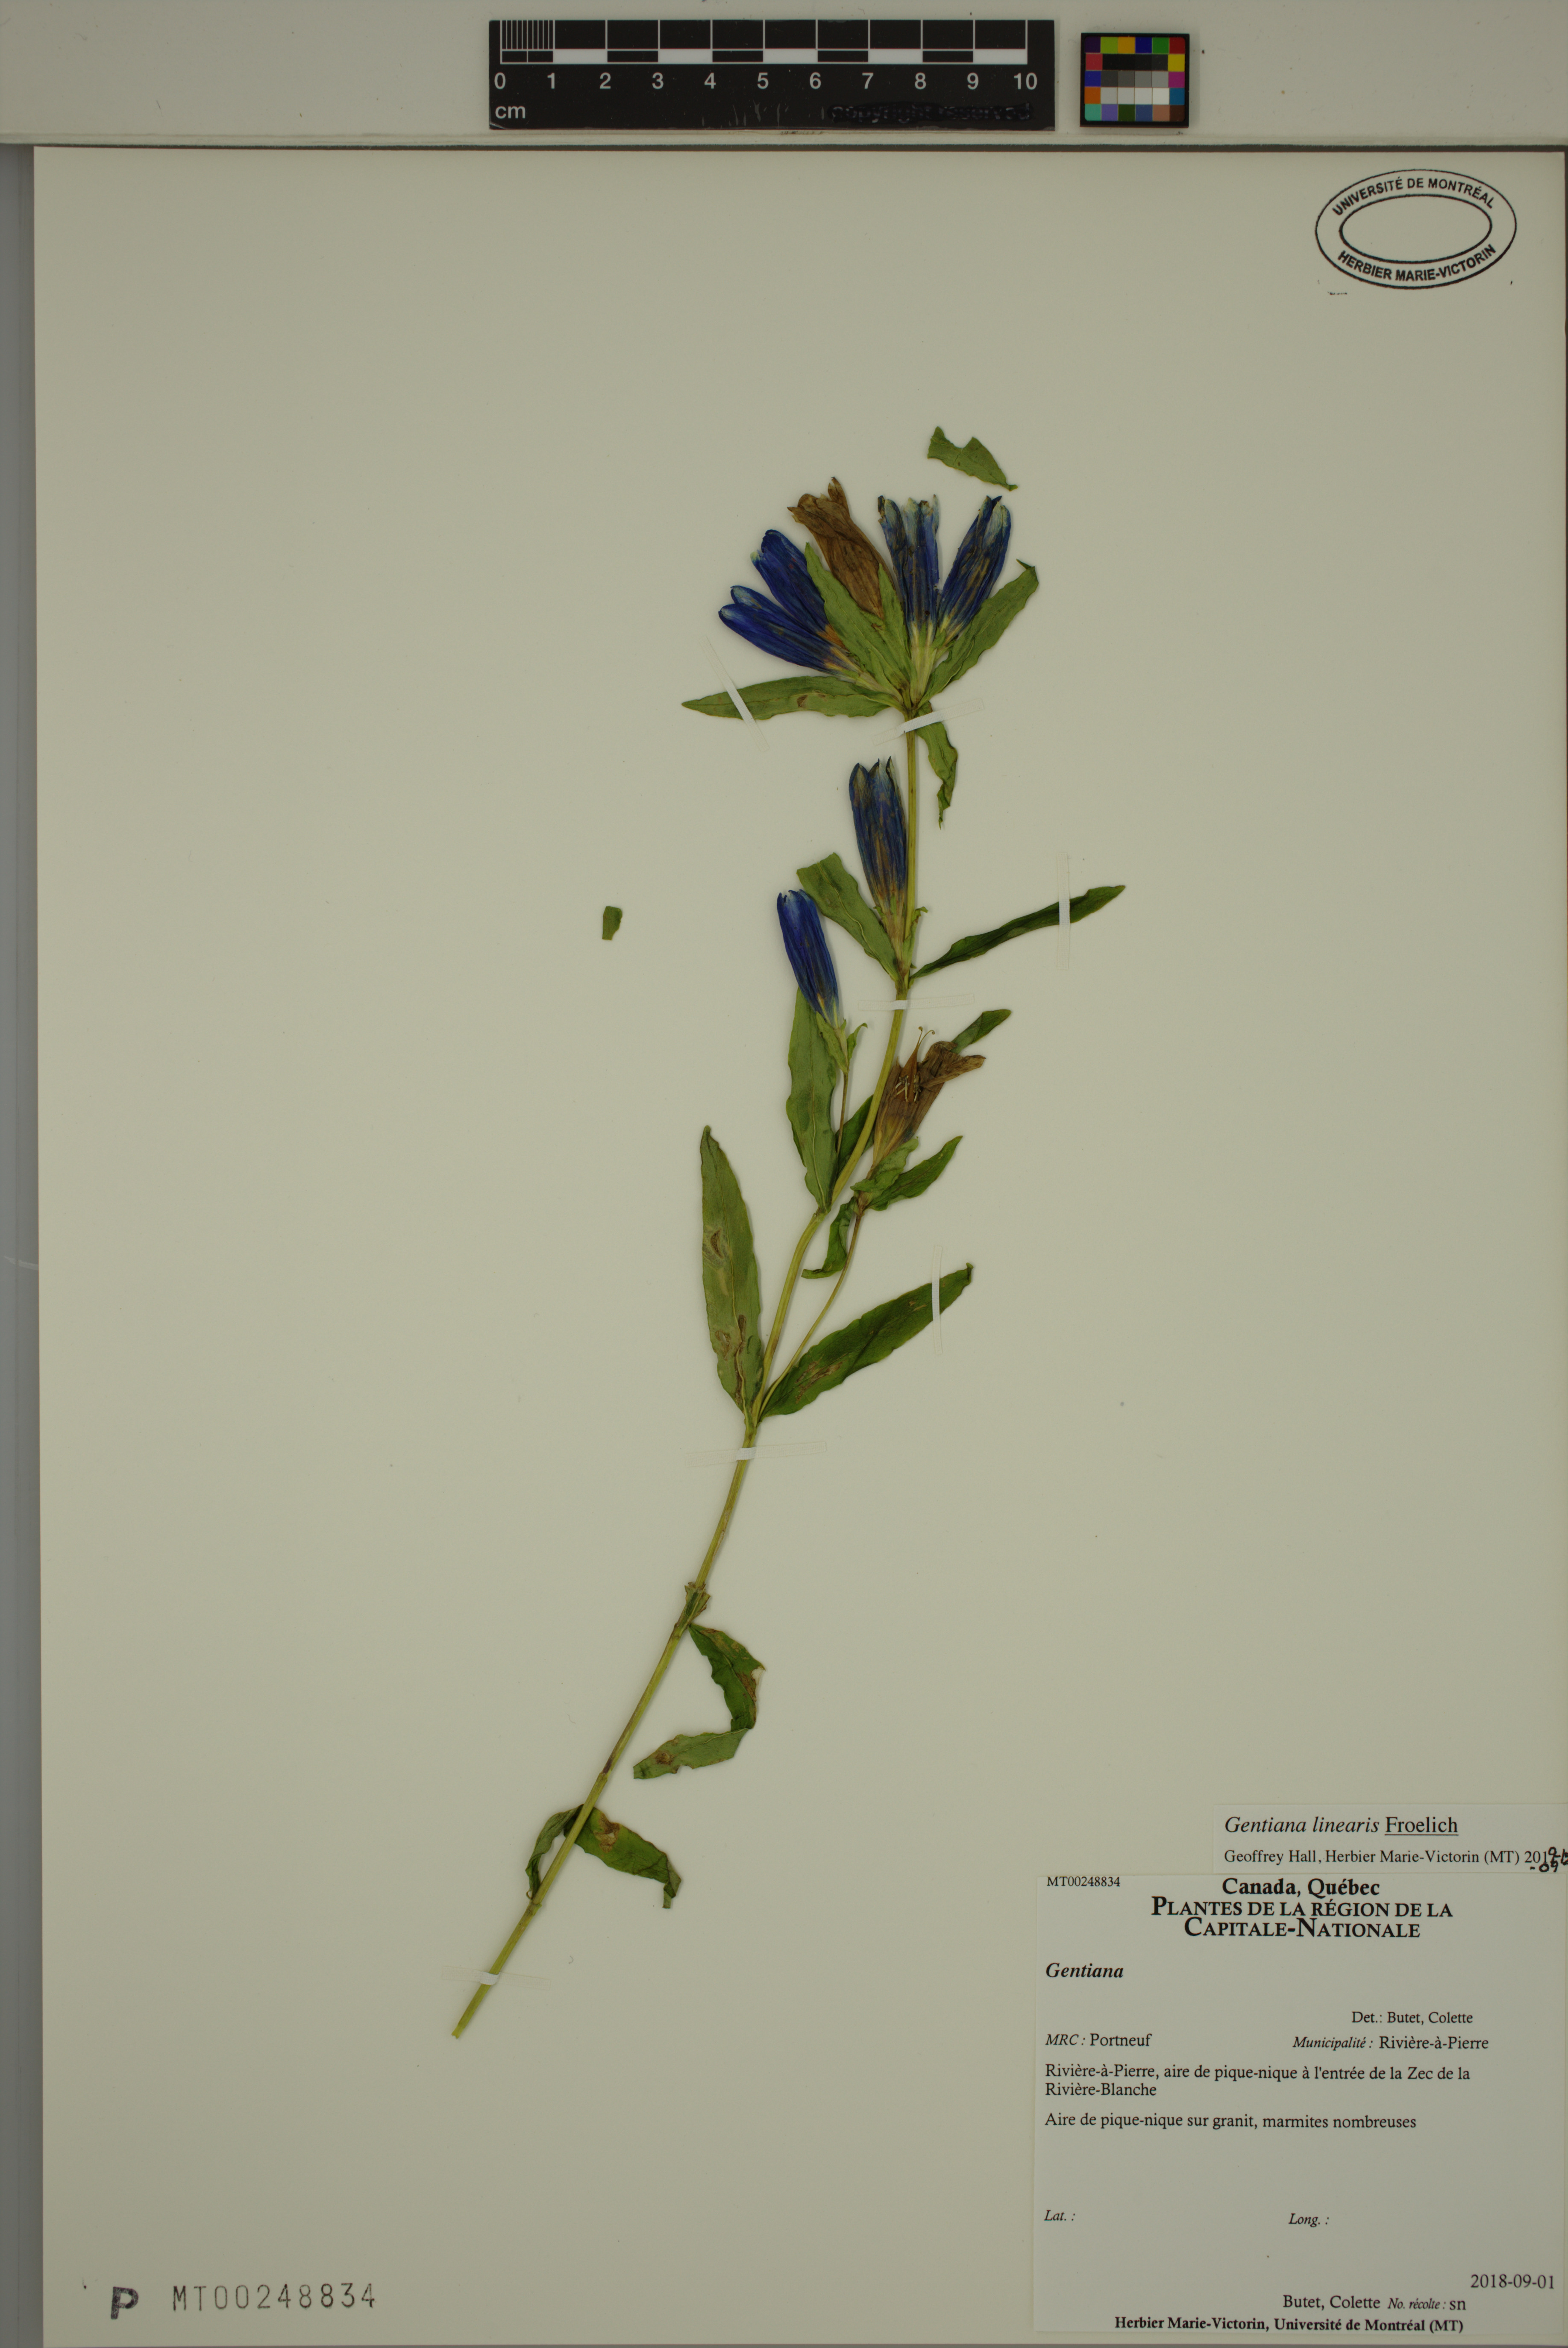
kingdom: Plantae
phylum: Tracheophyta
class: Magnoliopsida
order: Gentianales
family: Gentianaceae
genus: Gentiana
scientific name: Gentiana linearis
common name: Bastard gentian
